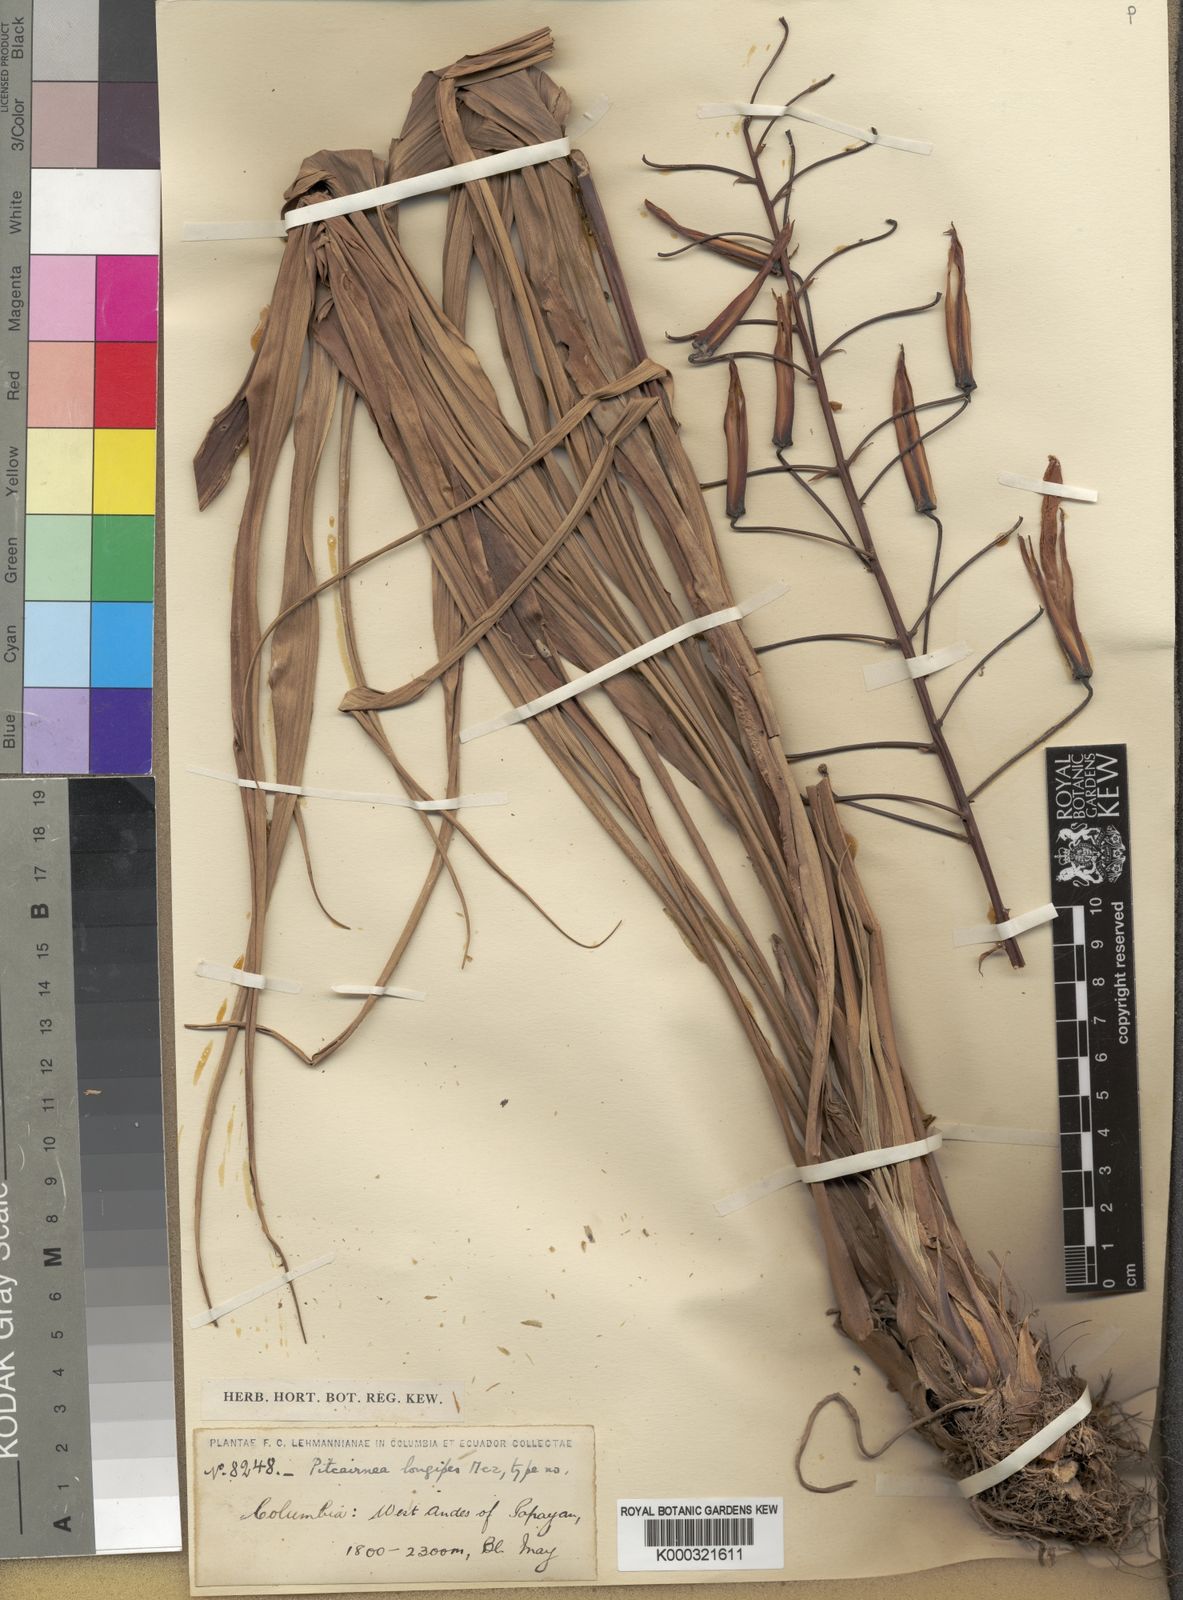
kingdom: Plantae
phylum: Tracheophyta
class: Liliopsida
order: Poales
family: Bromeliaceae
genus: Pitcairnia
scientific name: Pitcairnia longipes
